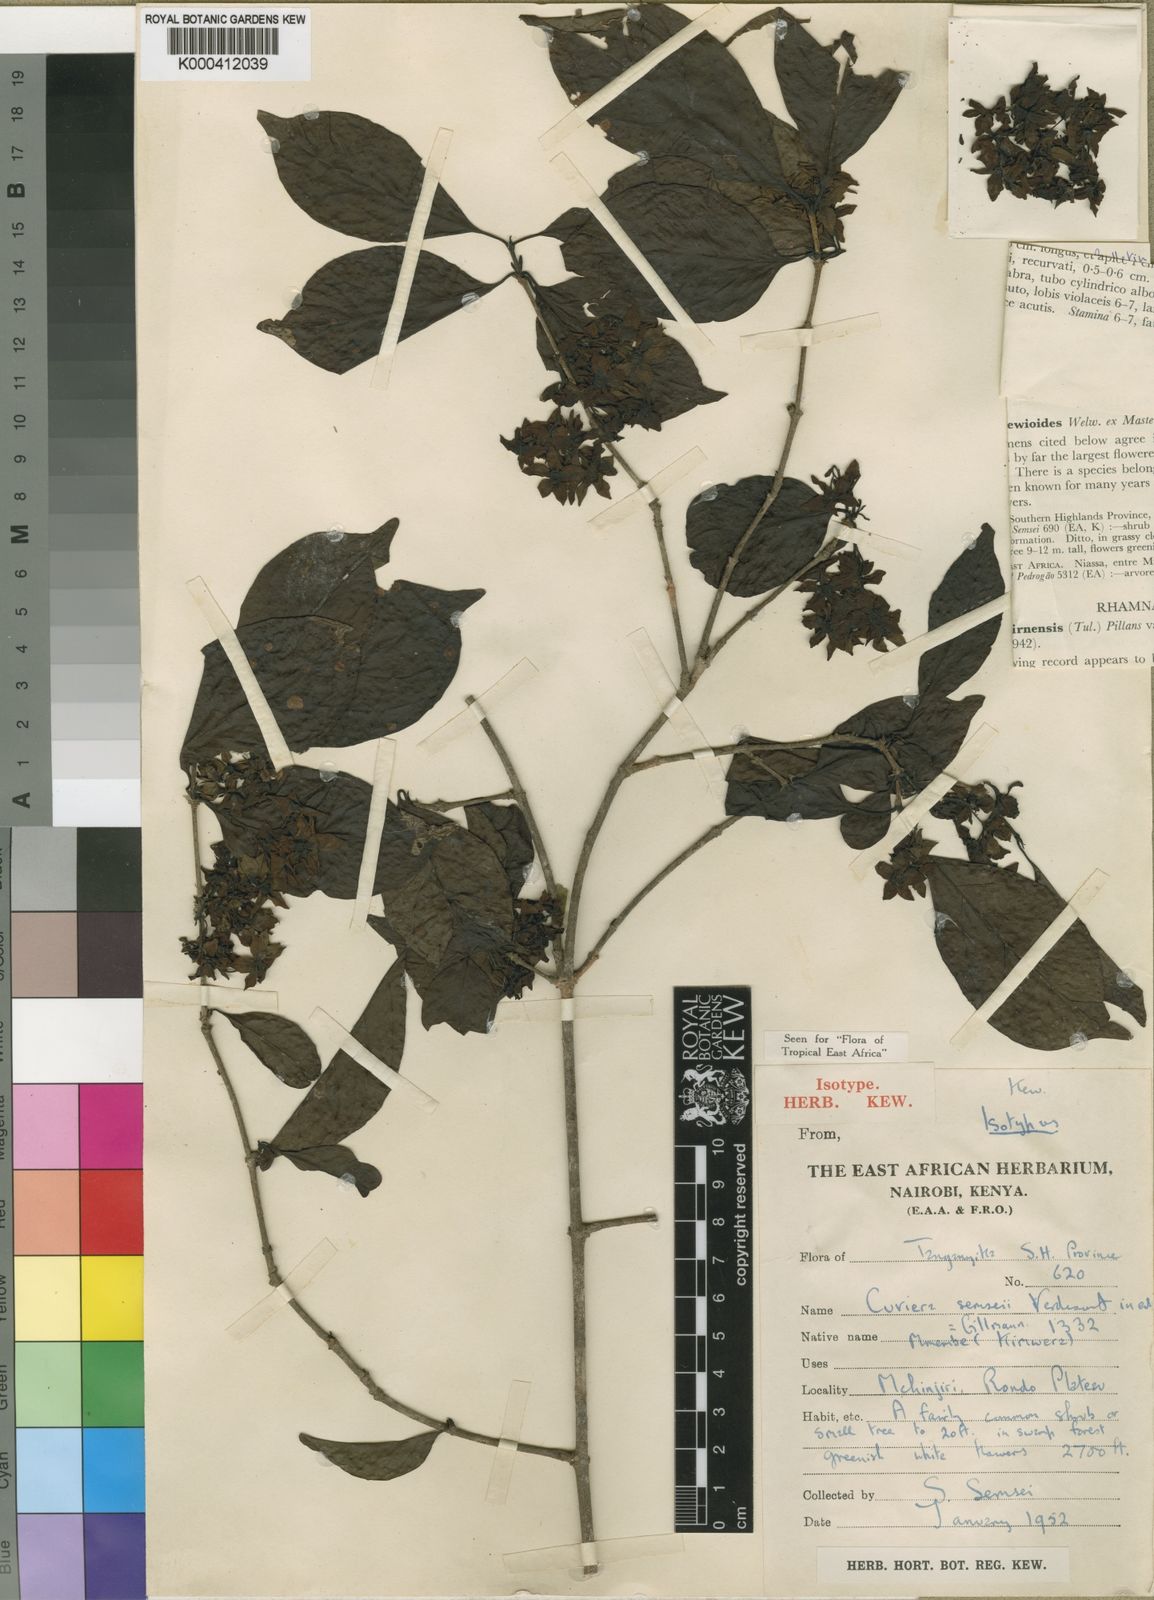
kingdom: Plantae
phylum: Tracheophyta
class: Magnoliopsida
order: Gentianales
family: Rubiaceae
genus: Cuviera
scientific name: Cuviera semseii
